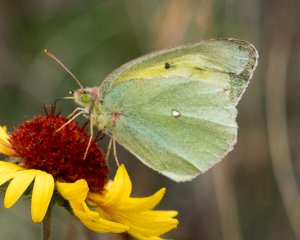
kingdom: Animalia
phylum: Arthropoda
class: Insecta
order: Lepidoptera
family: Pieridae
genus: Colias
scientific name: Colias christina
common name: Christina Sulphur
